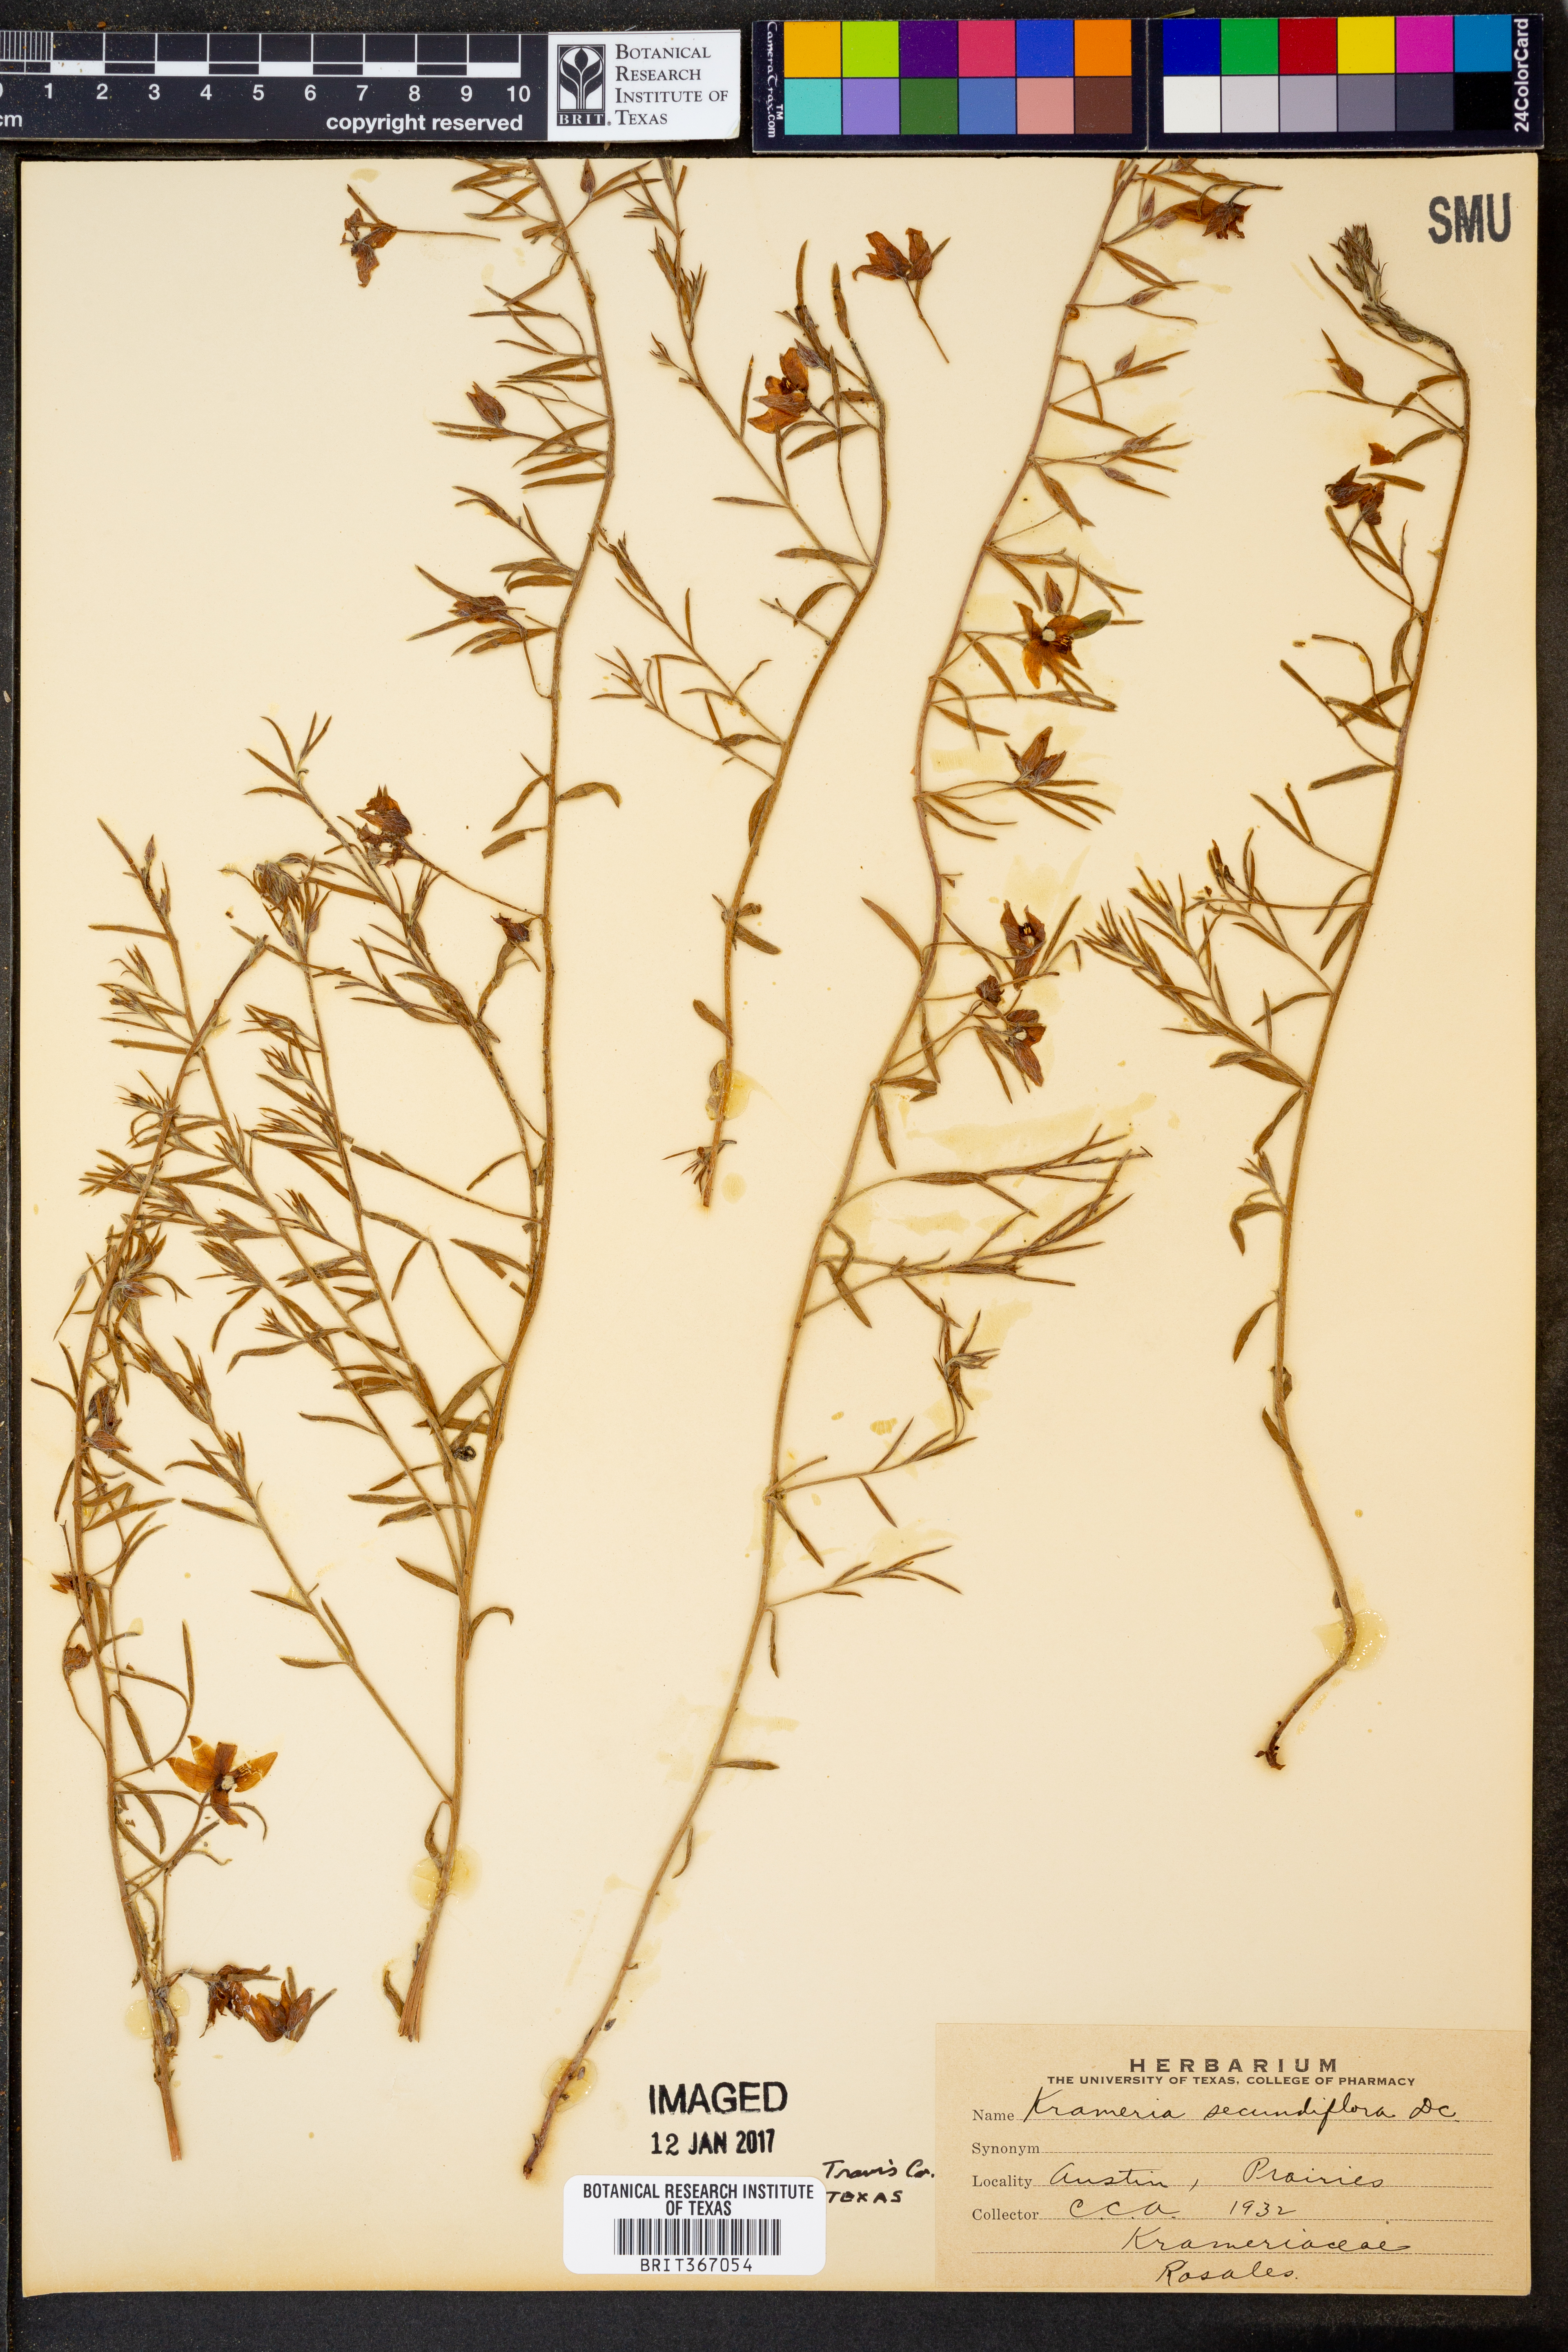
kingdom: Plantae
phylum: Tracheophyta
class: Magnoliopsida
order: Zygophyllales
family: Krameriaceae
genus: Krameria
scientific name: Krameria secundiflora
